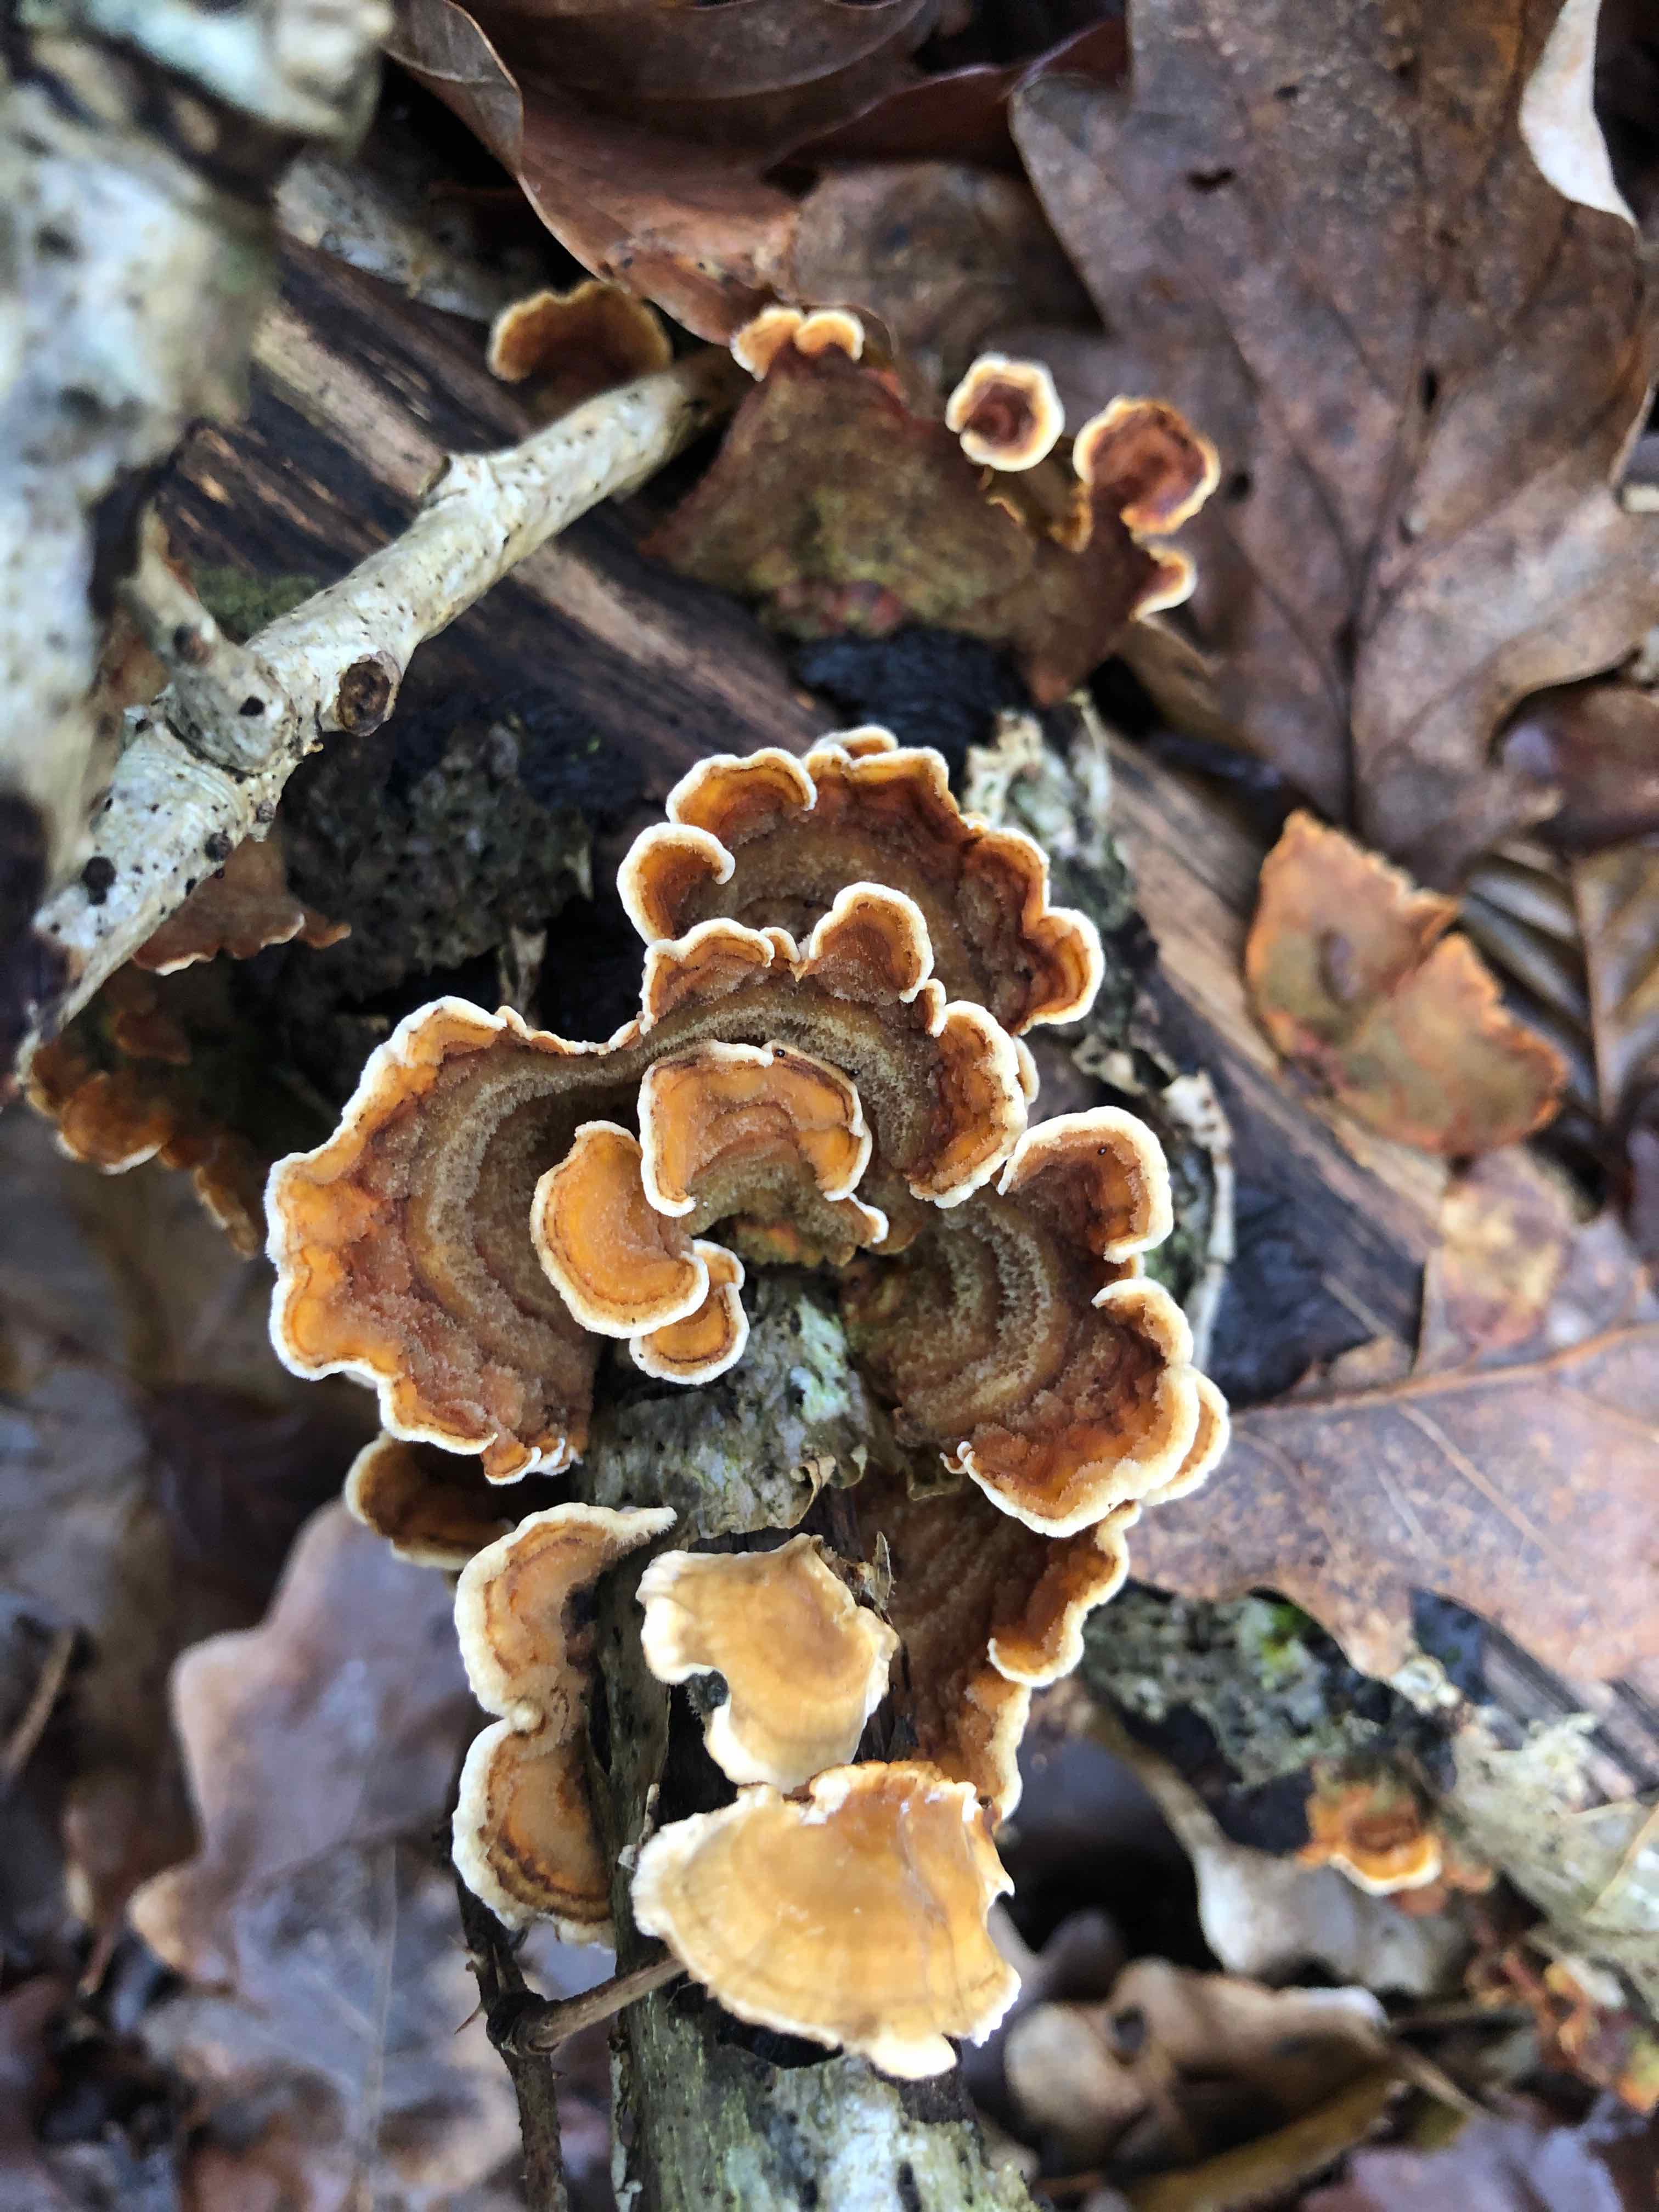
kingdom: Fungi
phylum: Basidiomycota
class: Agaricomycetes
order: Russulales
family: Stereaceae
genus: Stereum
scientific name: Stereum subtomentosum
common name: smuk lædersvamp
